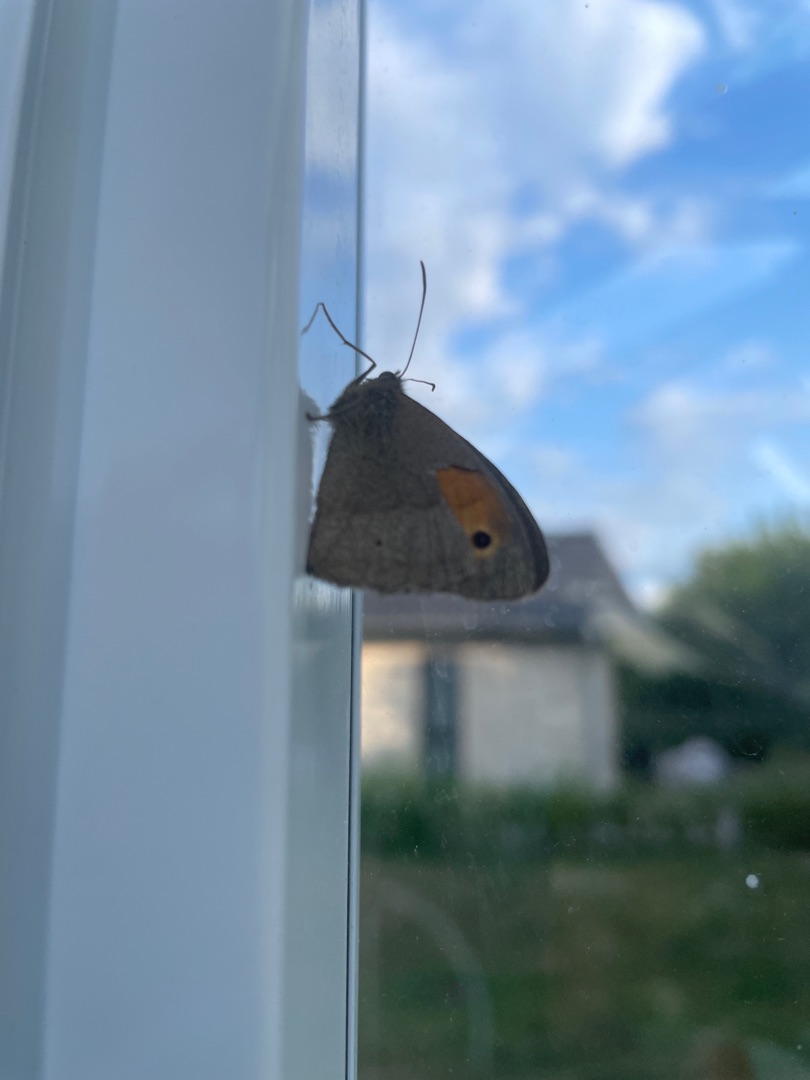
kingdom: Animalia
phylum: Arthropoda
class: Insecta
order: Lepidoptera
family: Nymphalidae
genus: Maniola
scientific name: Maniola jurtina
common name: Græsrandøje
